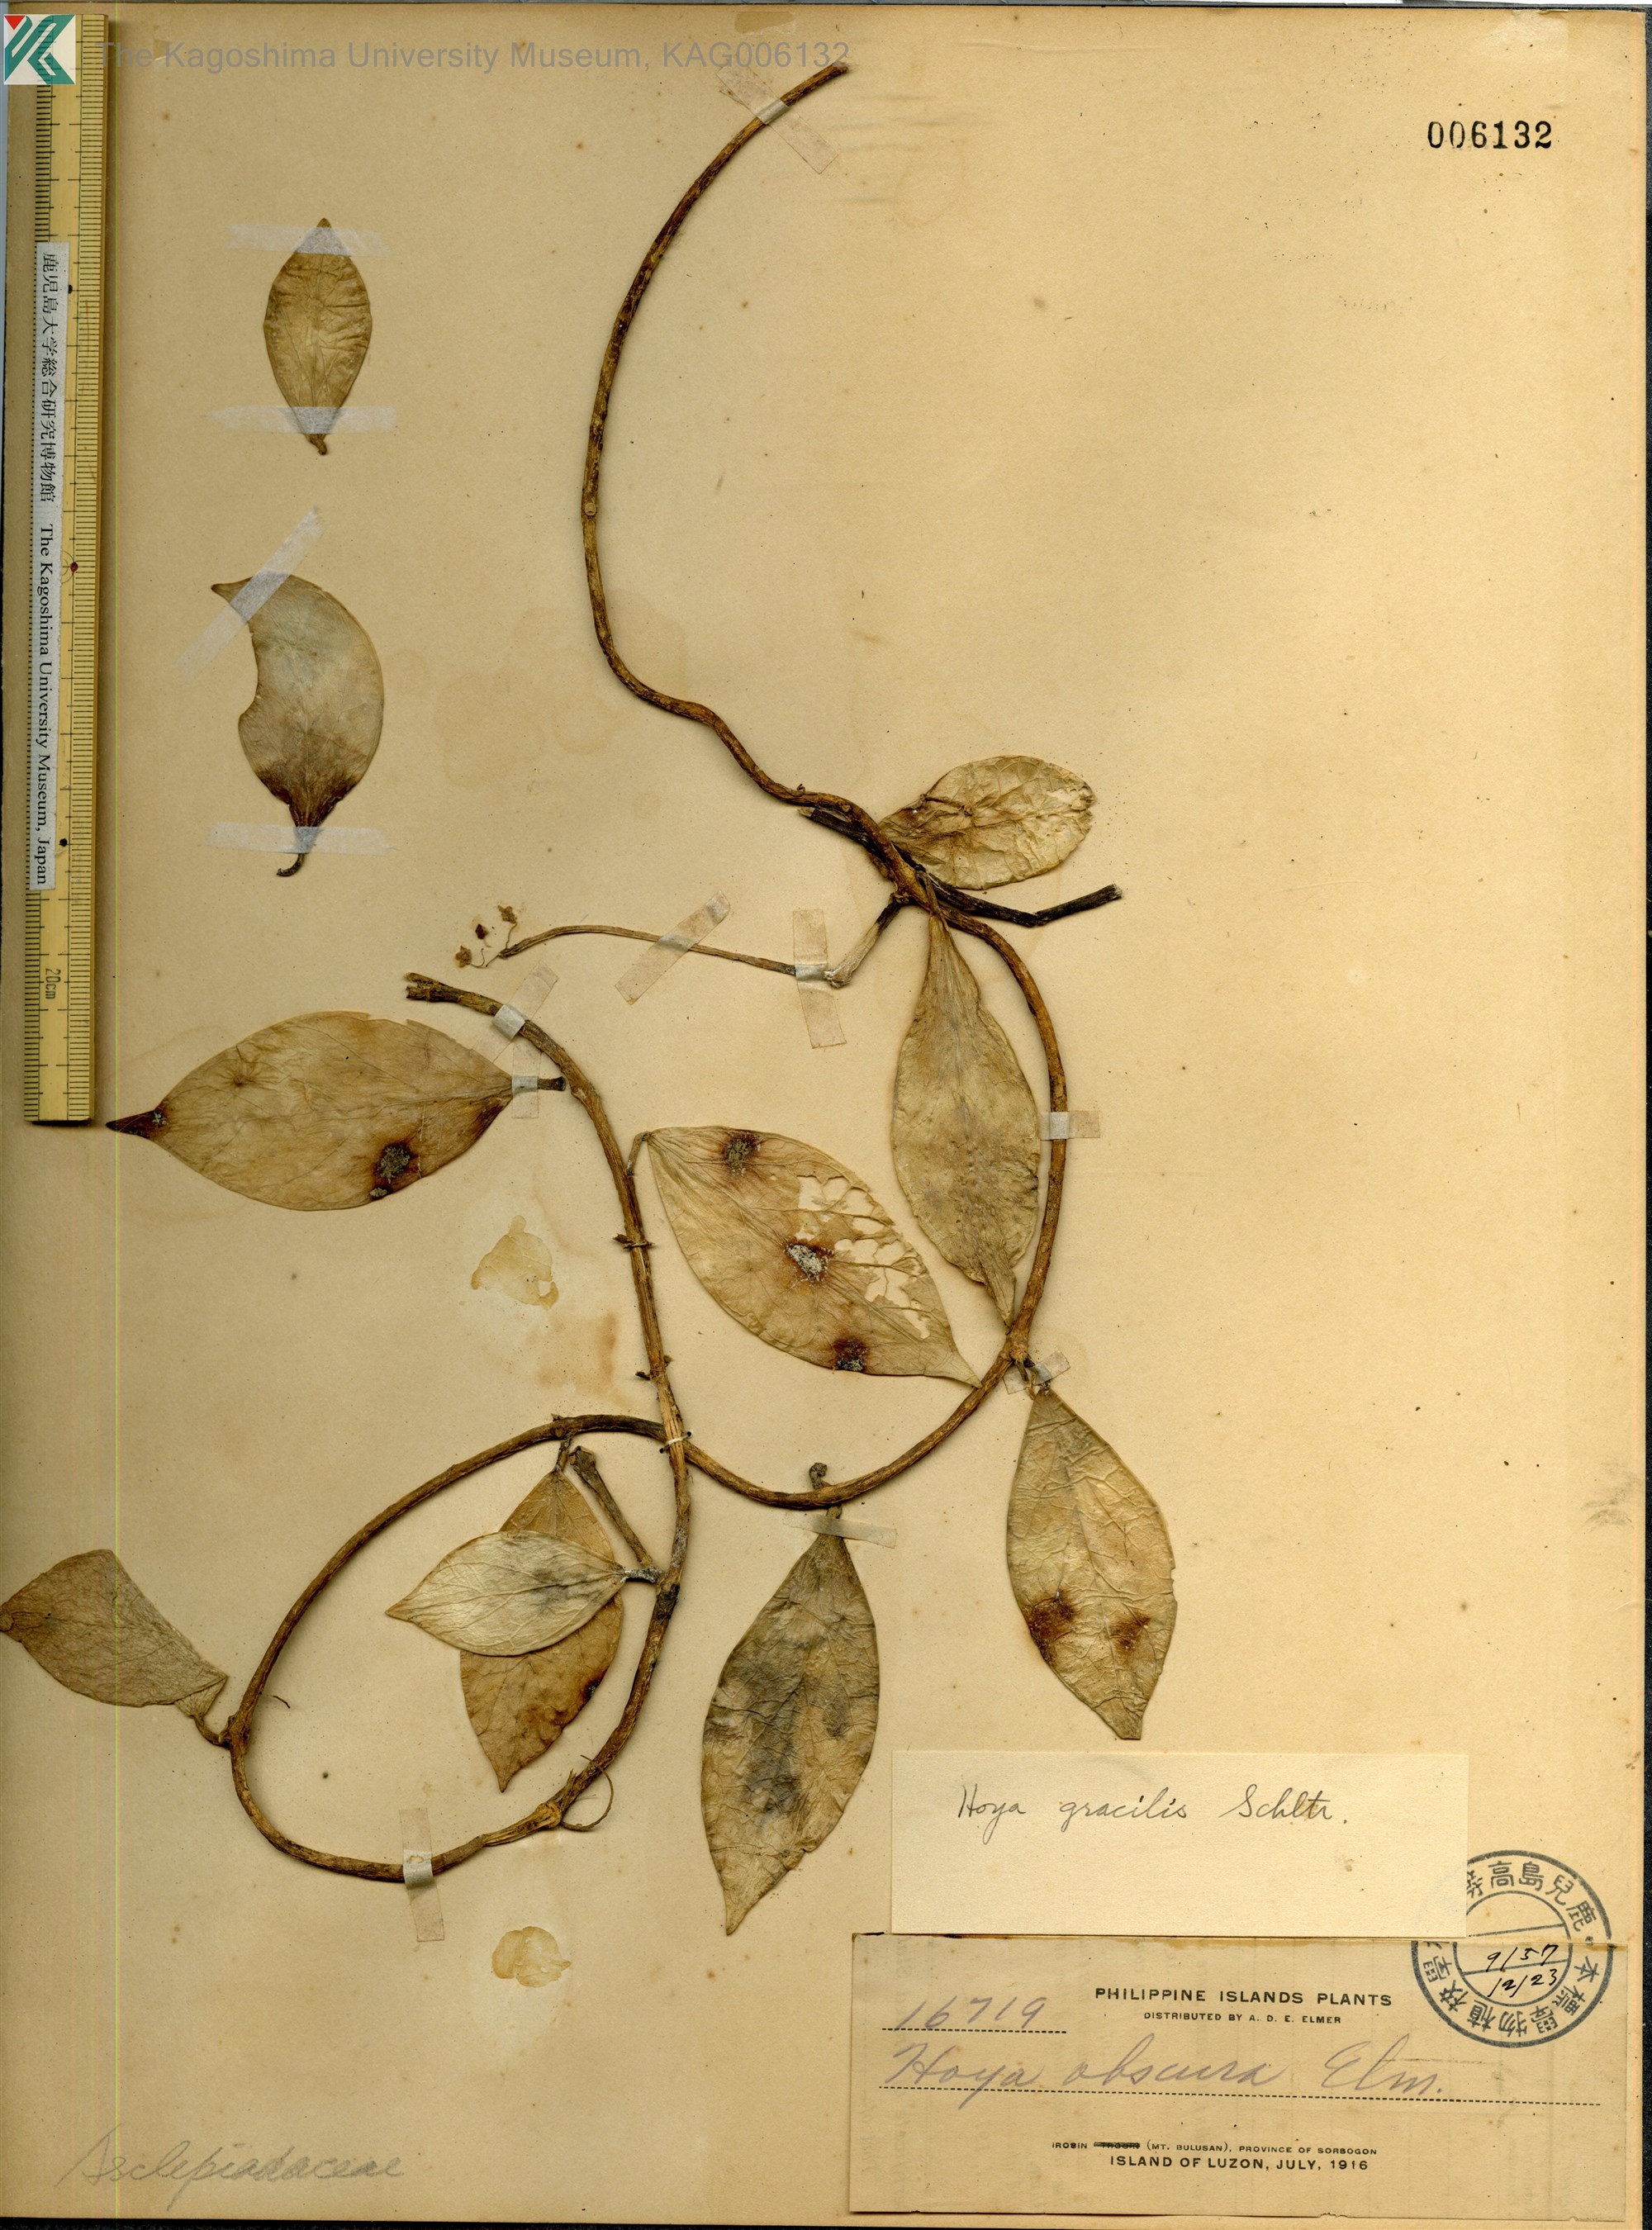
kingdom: Plantae
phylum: Tracheophyta
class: Magnoliopsida
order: Gentianales
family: Apocynaceae
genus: Hoya
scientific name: Hoya gracilis
